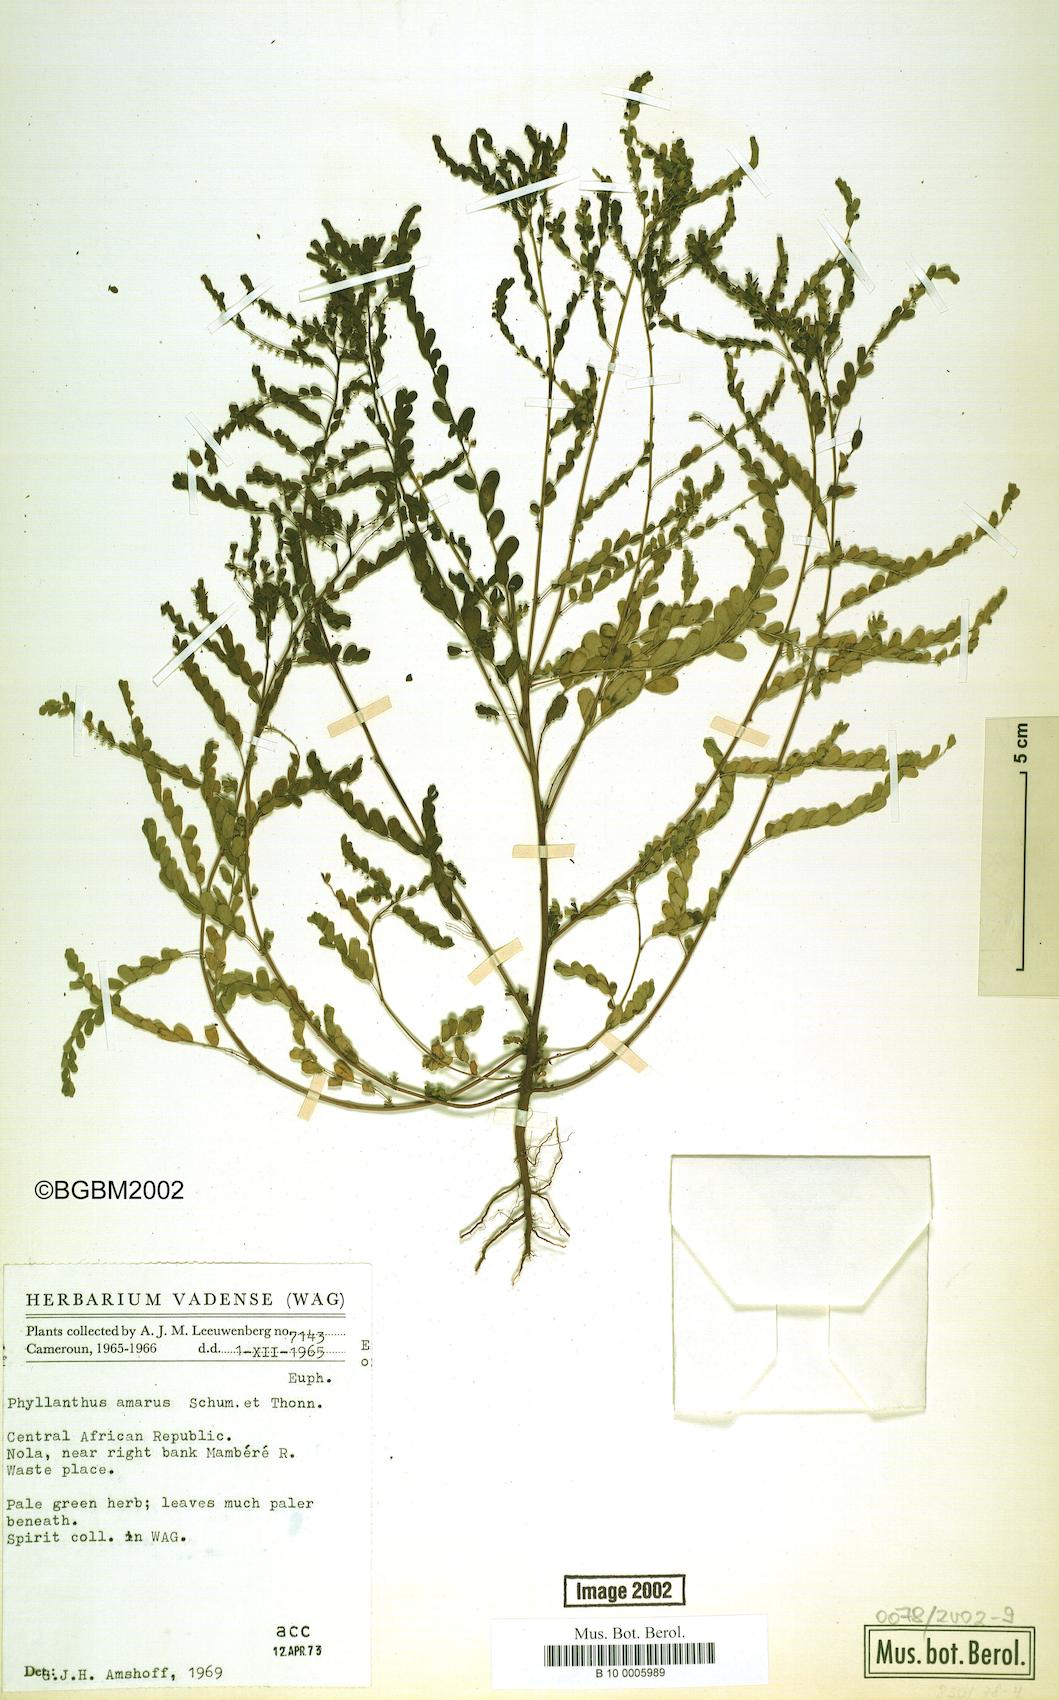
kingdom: Plantae
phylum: Tracheophyta
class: Magnoliopsida
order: Malpighiales
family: Phyllanthaceae
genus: Phyllanthus
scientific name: Phyllanthus amarus
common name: Carry me seed
